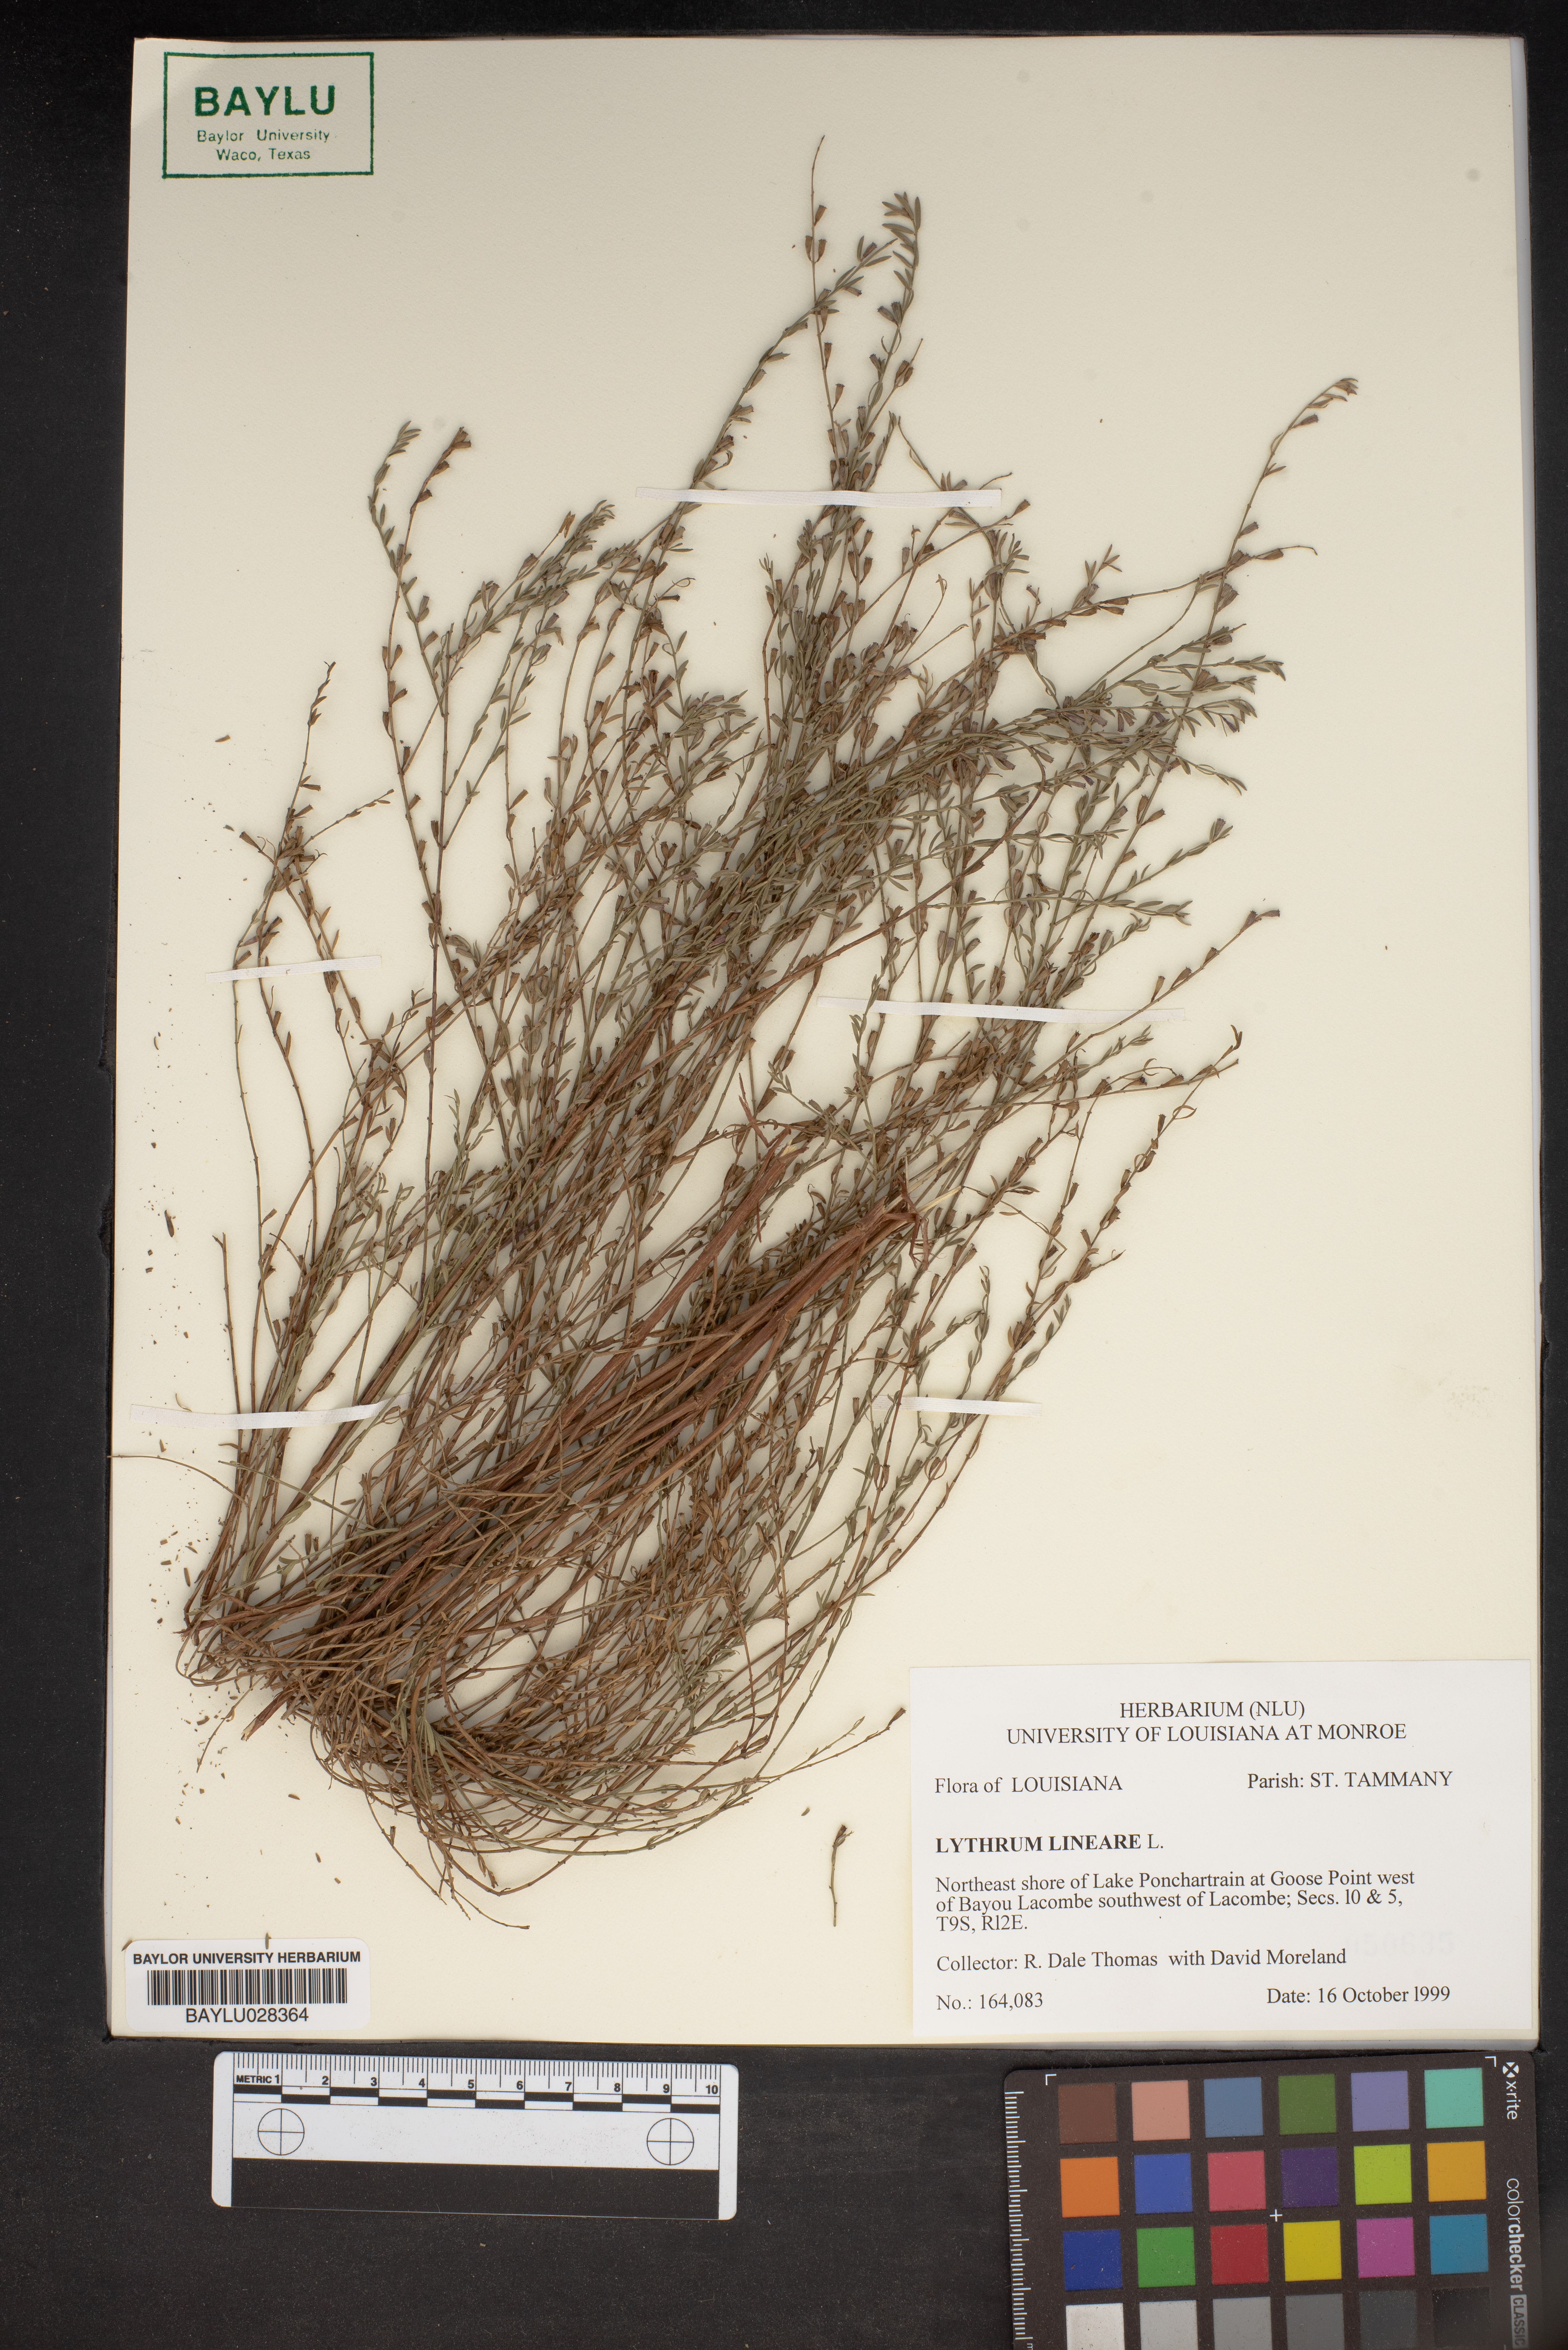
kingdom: Plantae
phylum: Tracheophyta
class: Magnoliopsida
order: Myrtales
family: Lythraceae
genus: Lythrum
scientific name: Lythrum lineare
